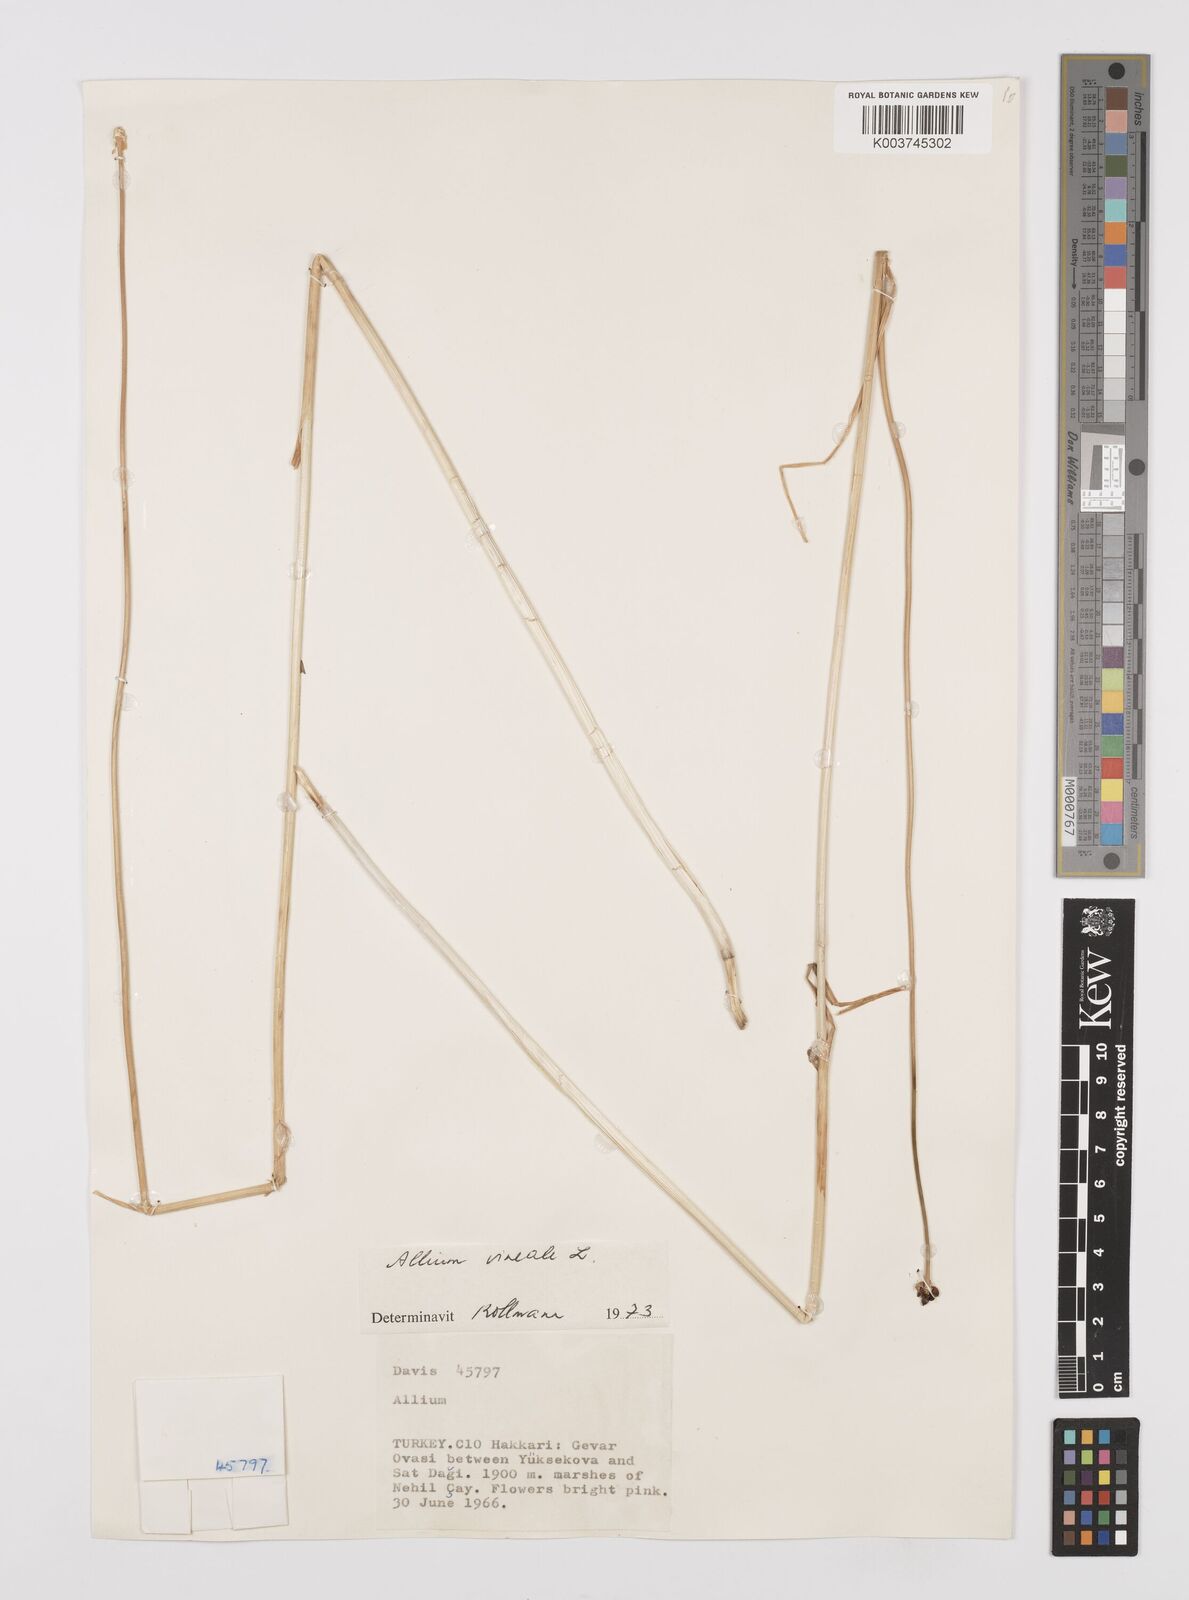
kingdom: Plantae
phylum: Tracheophyta
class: Liliopsida
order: Asparagales
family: Amaryllidaceae
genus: Allium
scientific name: Allium vineale
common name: Crow garlic
